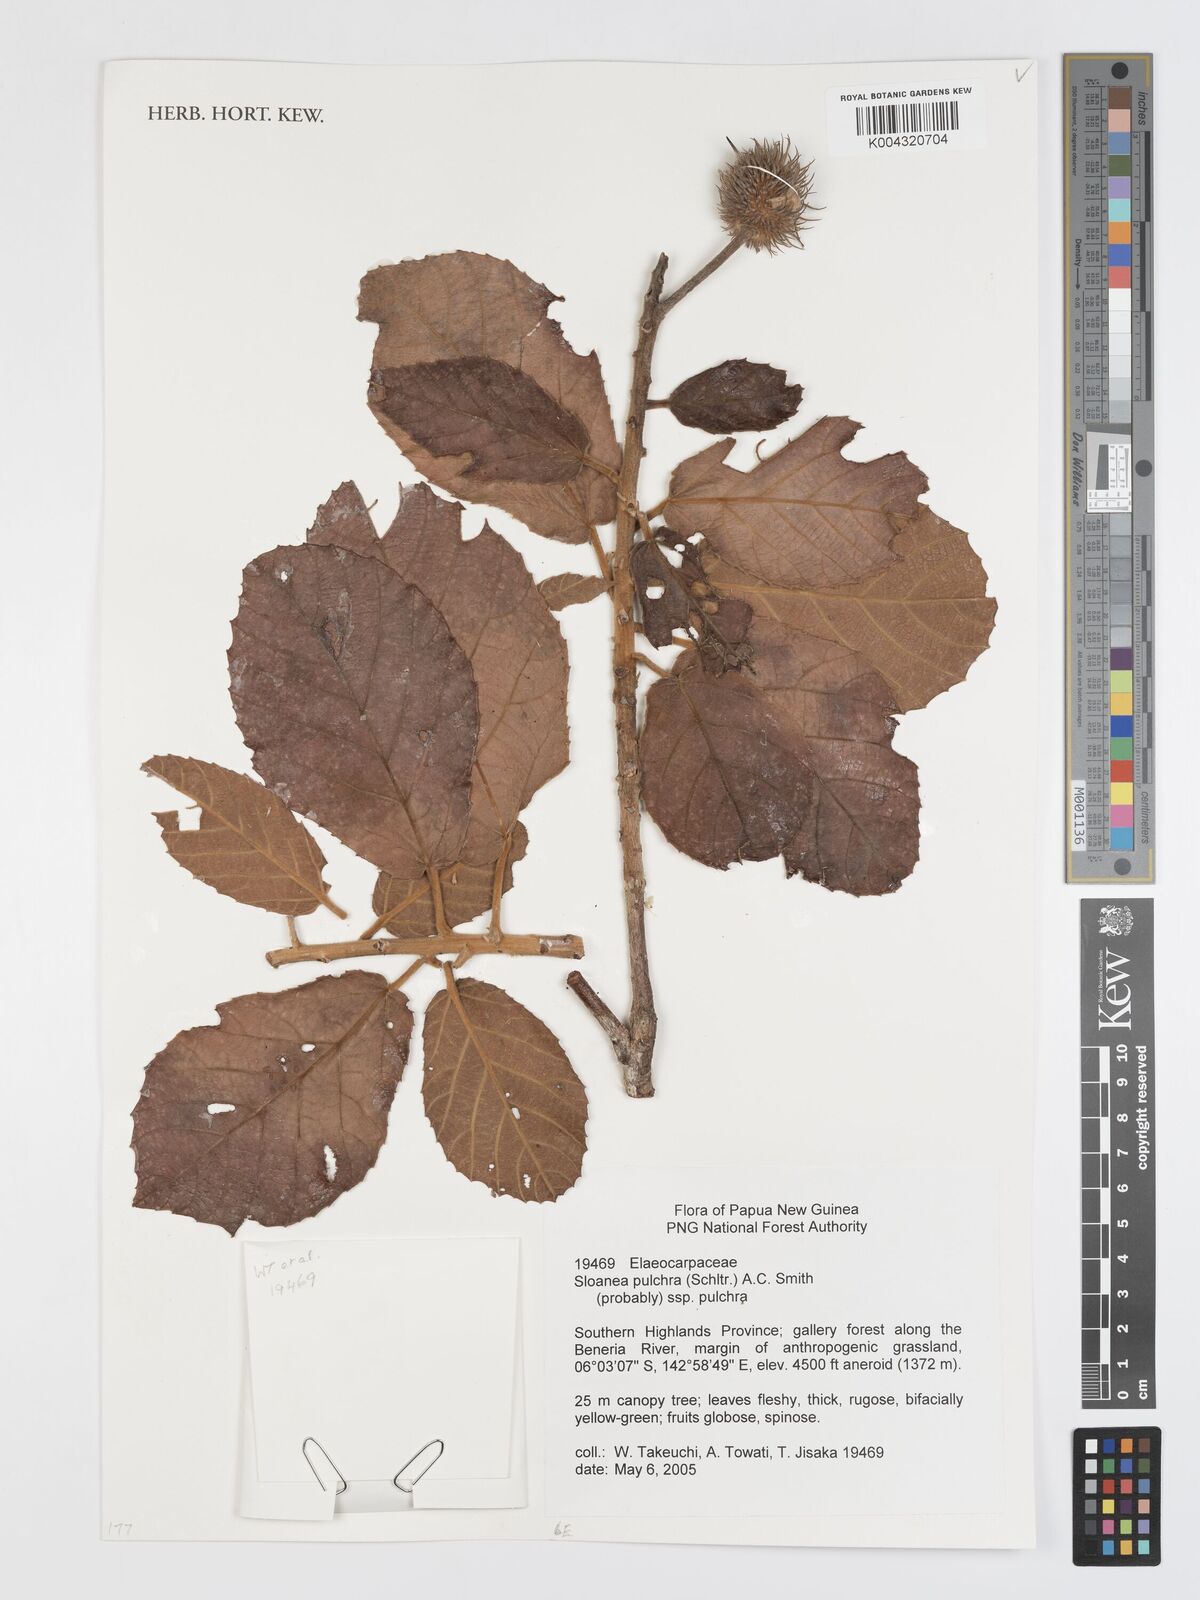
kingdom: Plantae
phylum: Tracheophyta
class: Magnoliopsida
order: Oxalidales
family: Elaeocarpaceae
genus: Sloanea
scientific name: Sloanea pulchra
